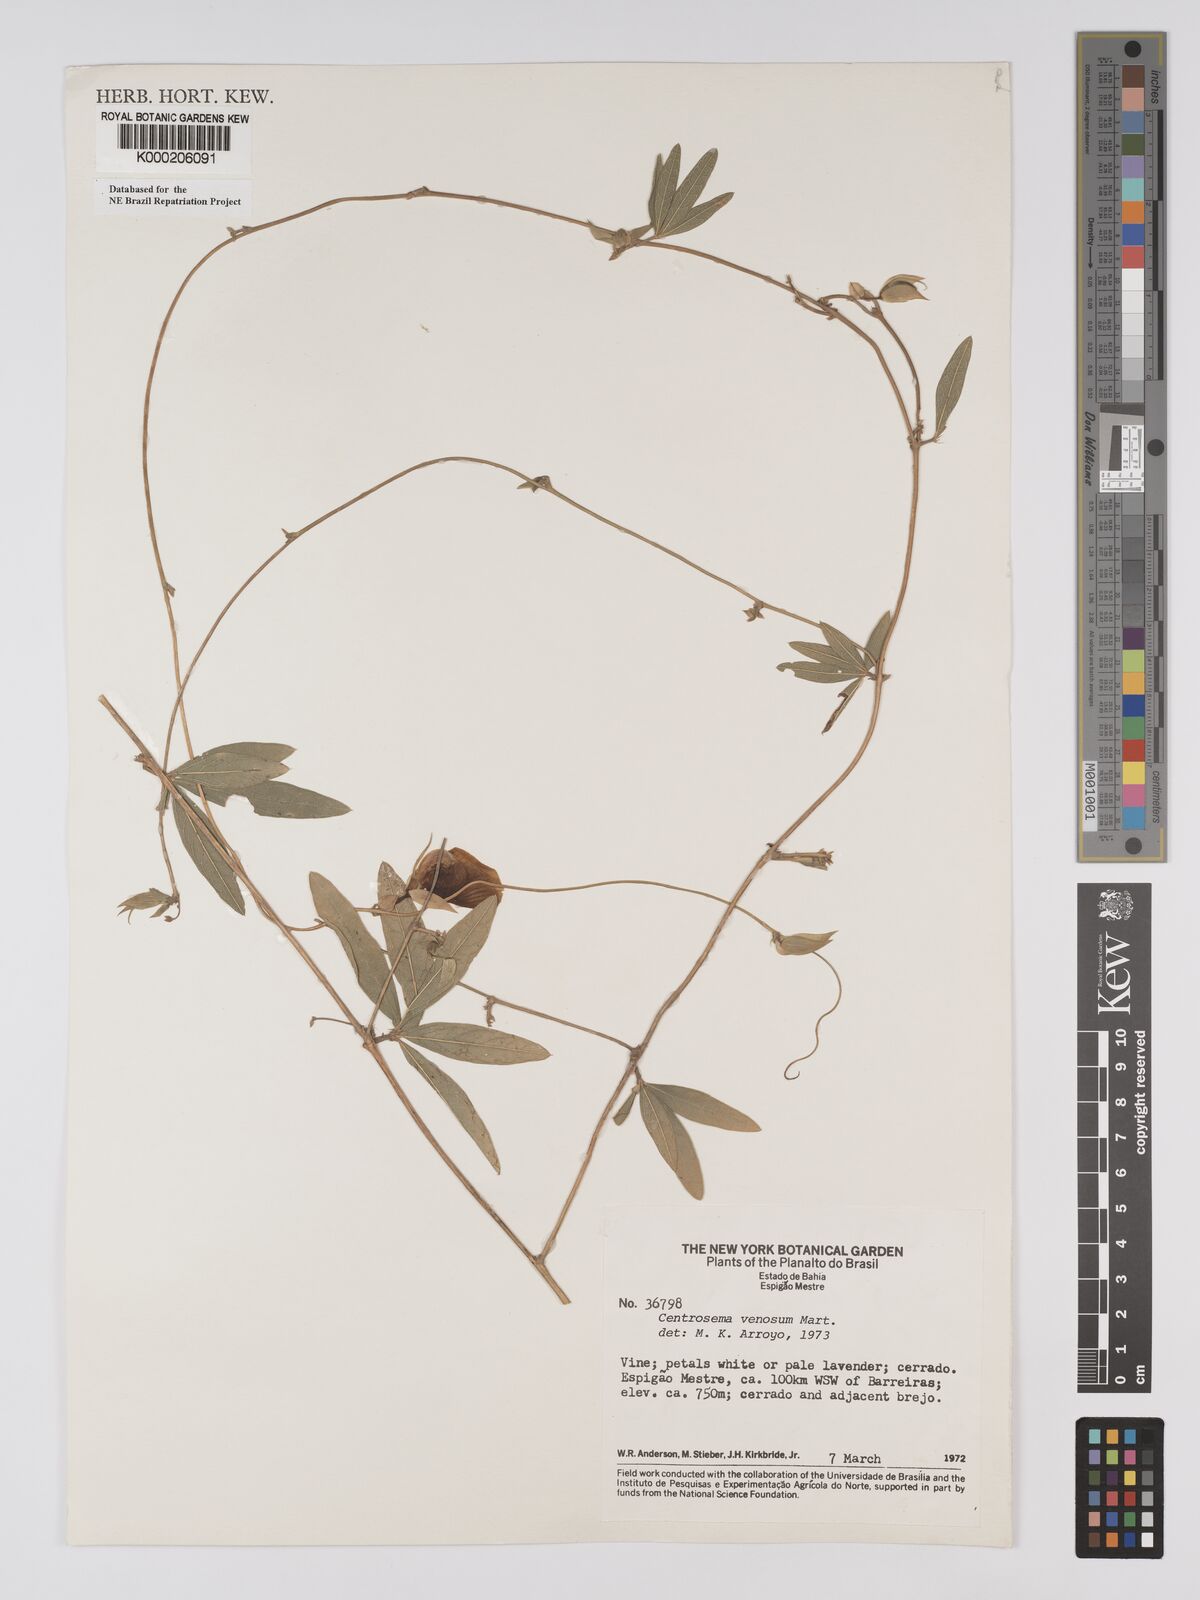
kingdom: Plantae
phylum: Tracheophyta
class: Magnoliopsida
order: Fabales
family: Fabaceae
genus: Centrosema
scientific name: Centrosema venosum
